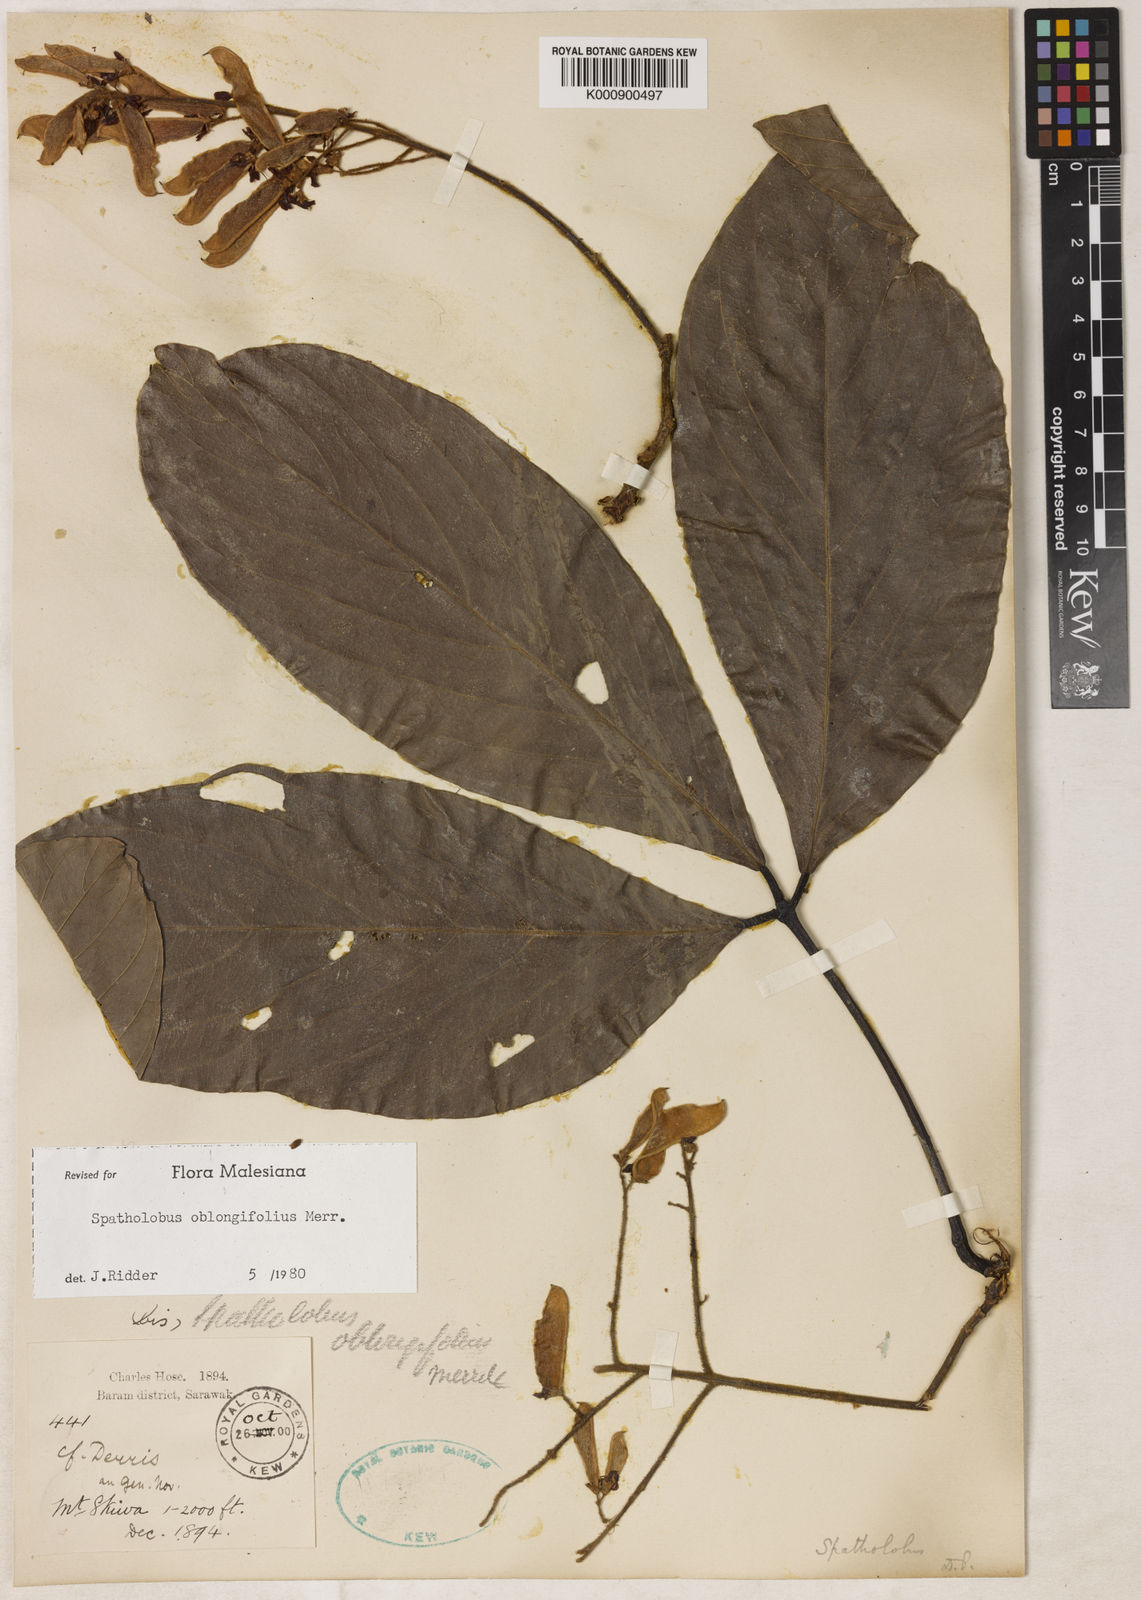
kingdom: Plantae
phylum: Tracheophyta
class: Magnoliopsida
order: Fabales
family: Fabaceae
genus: Spatholobus
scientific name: Spatholobus oblongifolius
